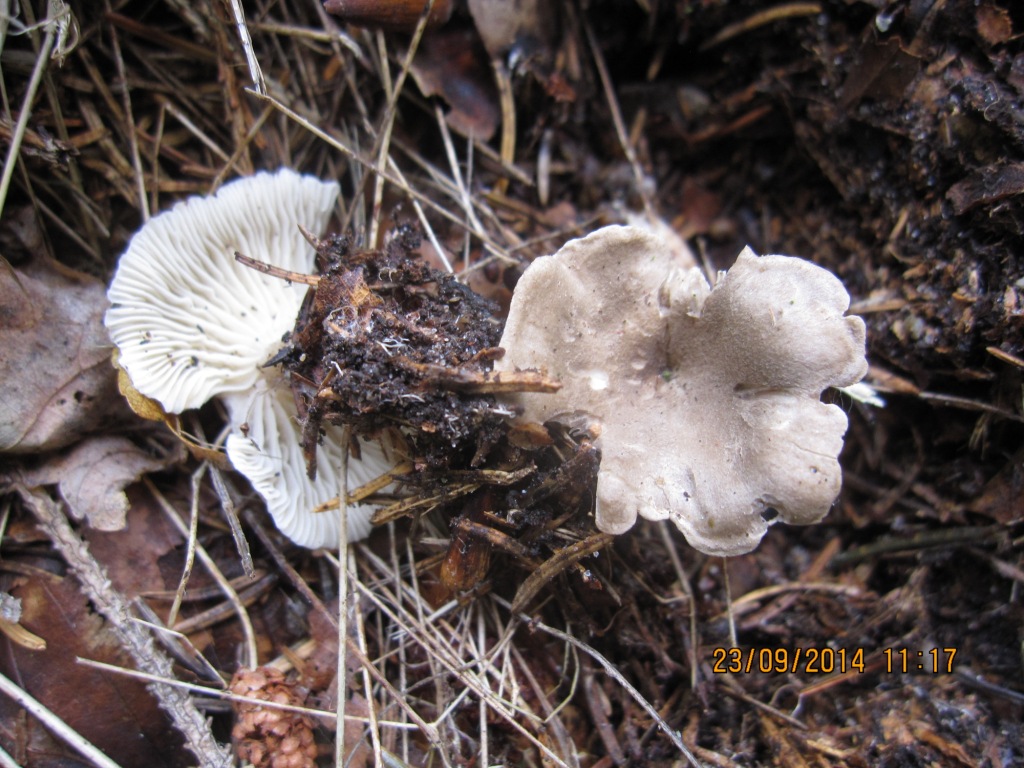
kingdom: Fungi
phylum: Basidiomycota
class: Agaricomycetes
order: Agaricales
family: Hygrophoraceae
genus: Spodocybe
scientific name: Spodocybe trulliformis
